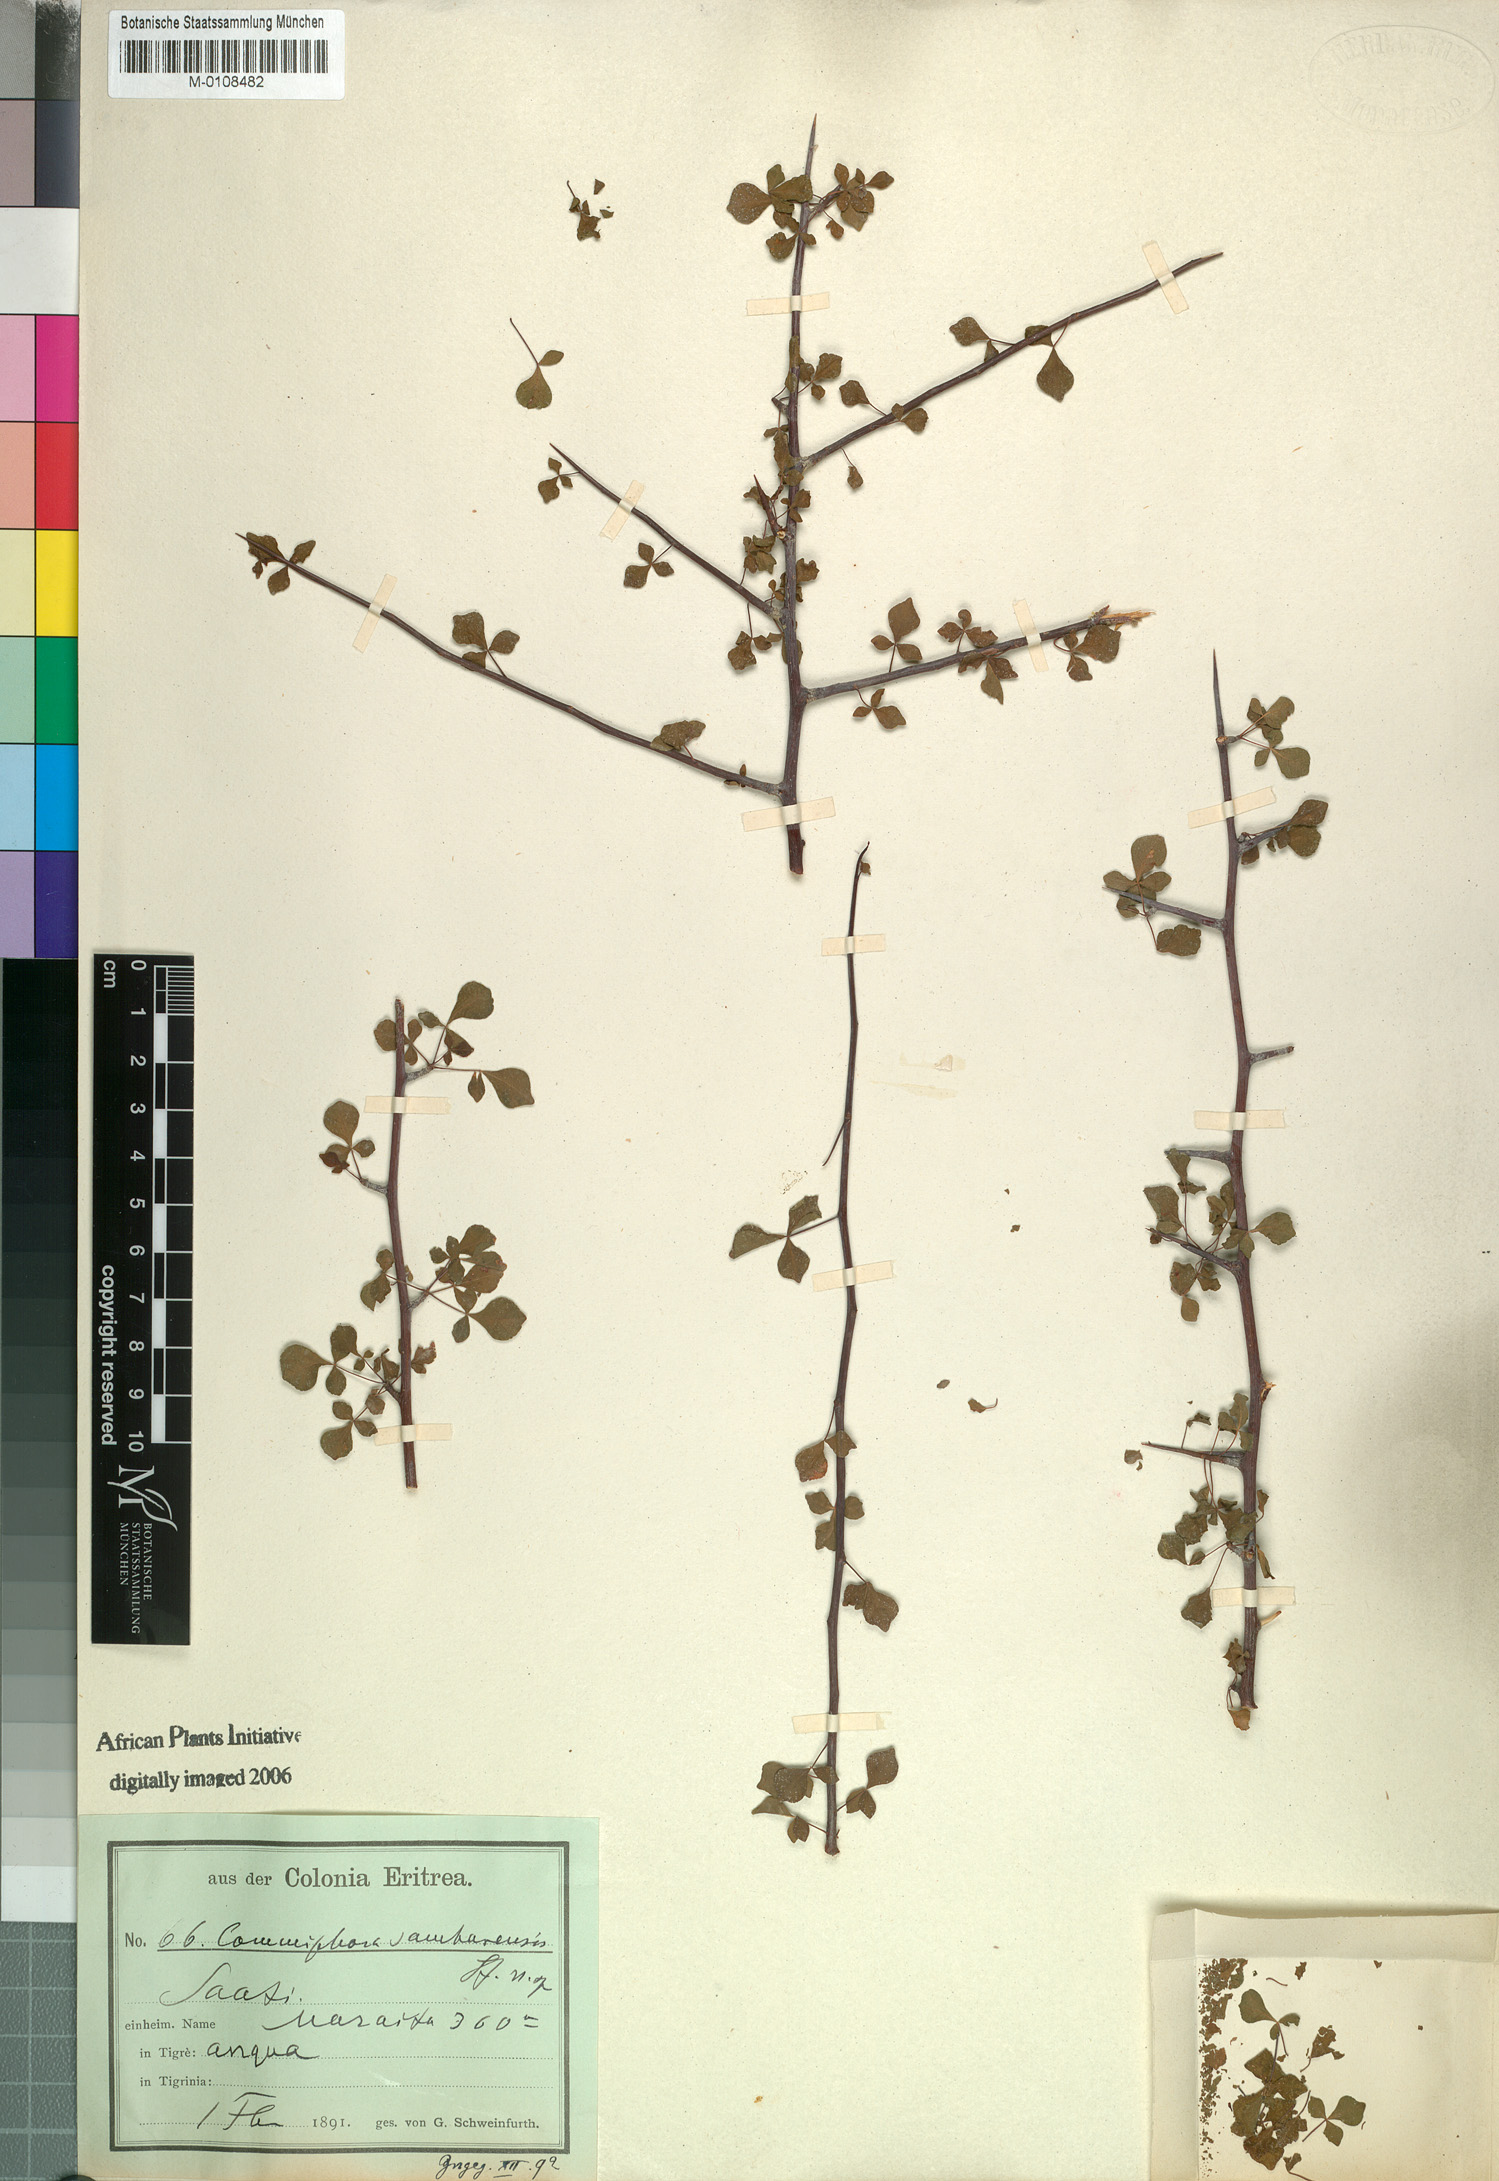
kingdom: Plantae
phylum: Tracheophyta
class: Magnoliopsida
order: Sapindales
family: Burseraceae
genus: Commiphora
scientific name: Commiphora samharensis
